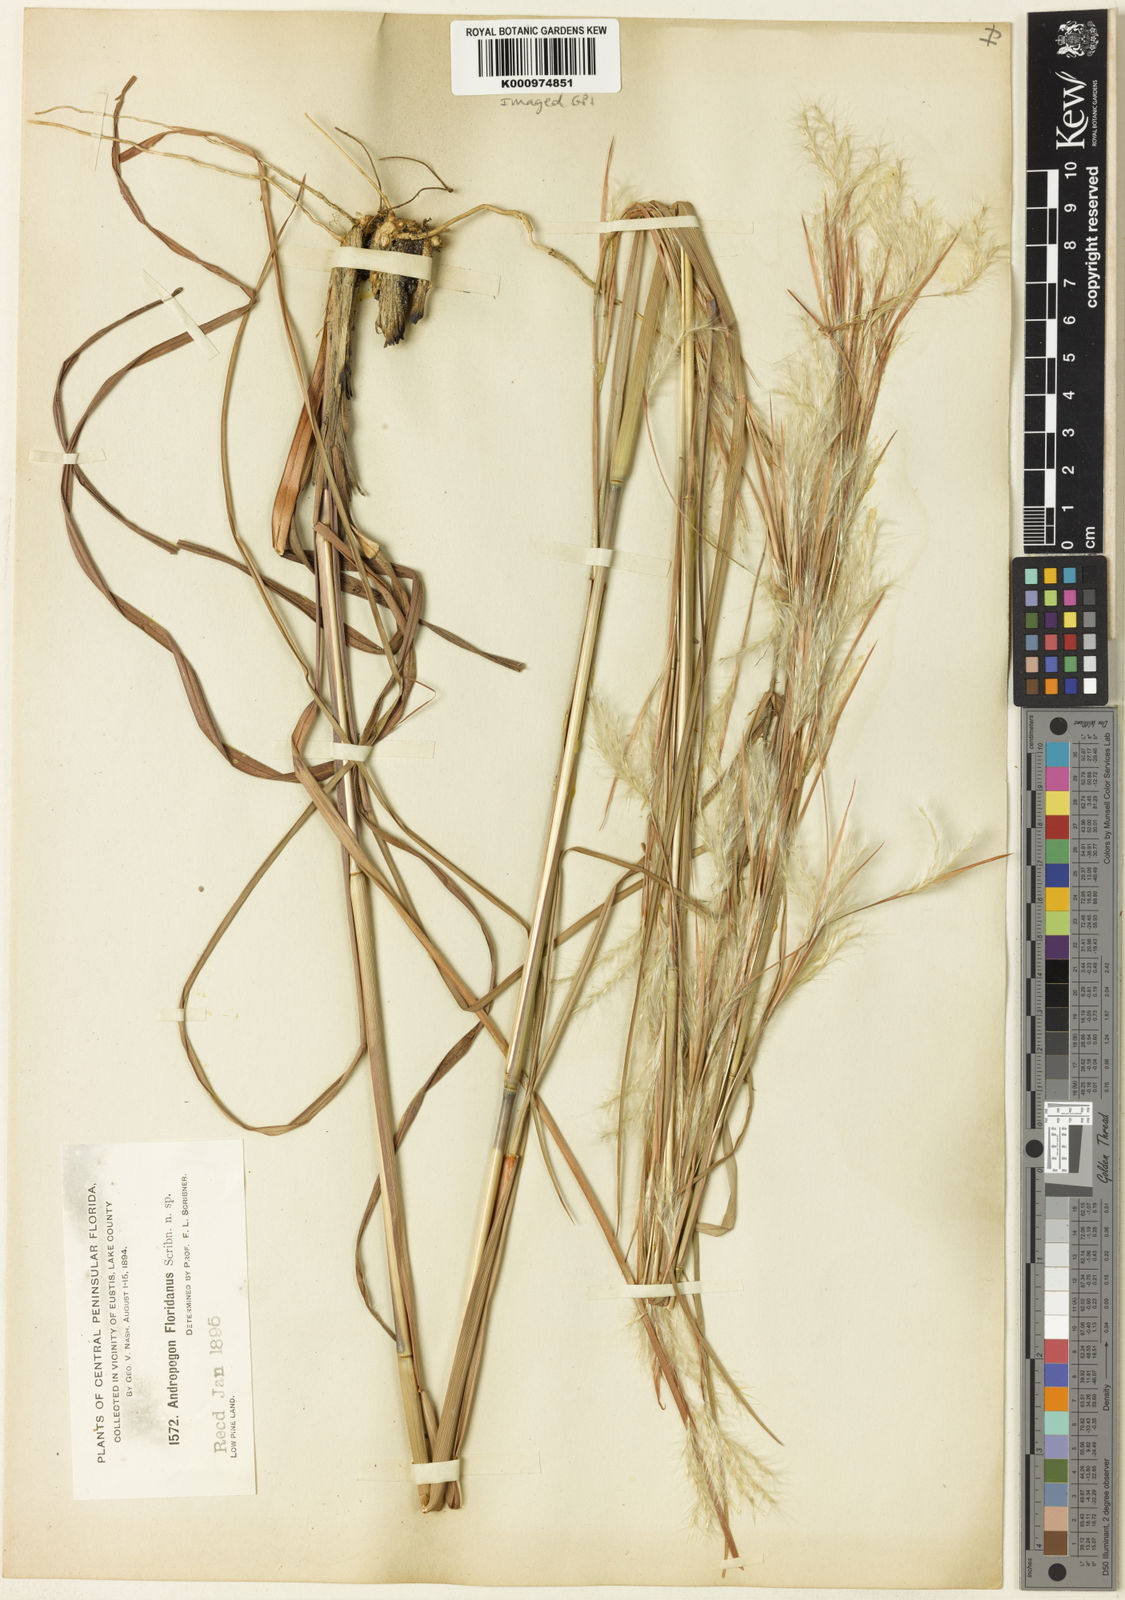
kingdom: Plantae
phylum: Tracheophyta
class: Liliopsida
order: Poales
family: Poaceae
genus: Andropogon
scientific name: Andropogon floridanus
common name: Florida bluestem
